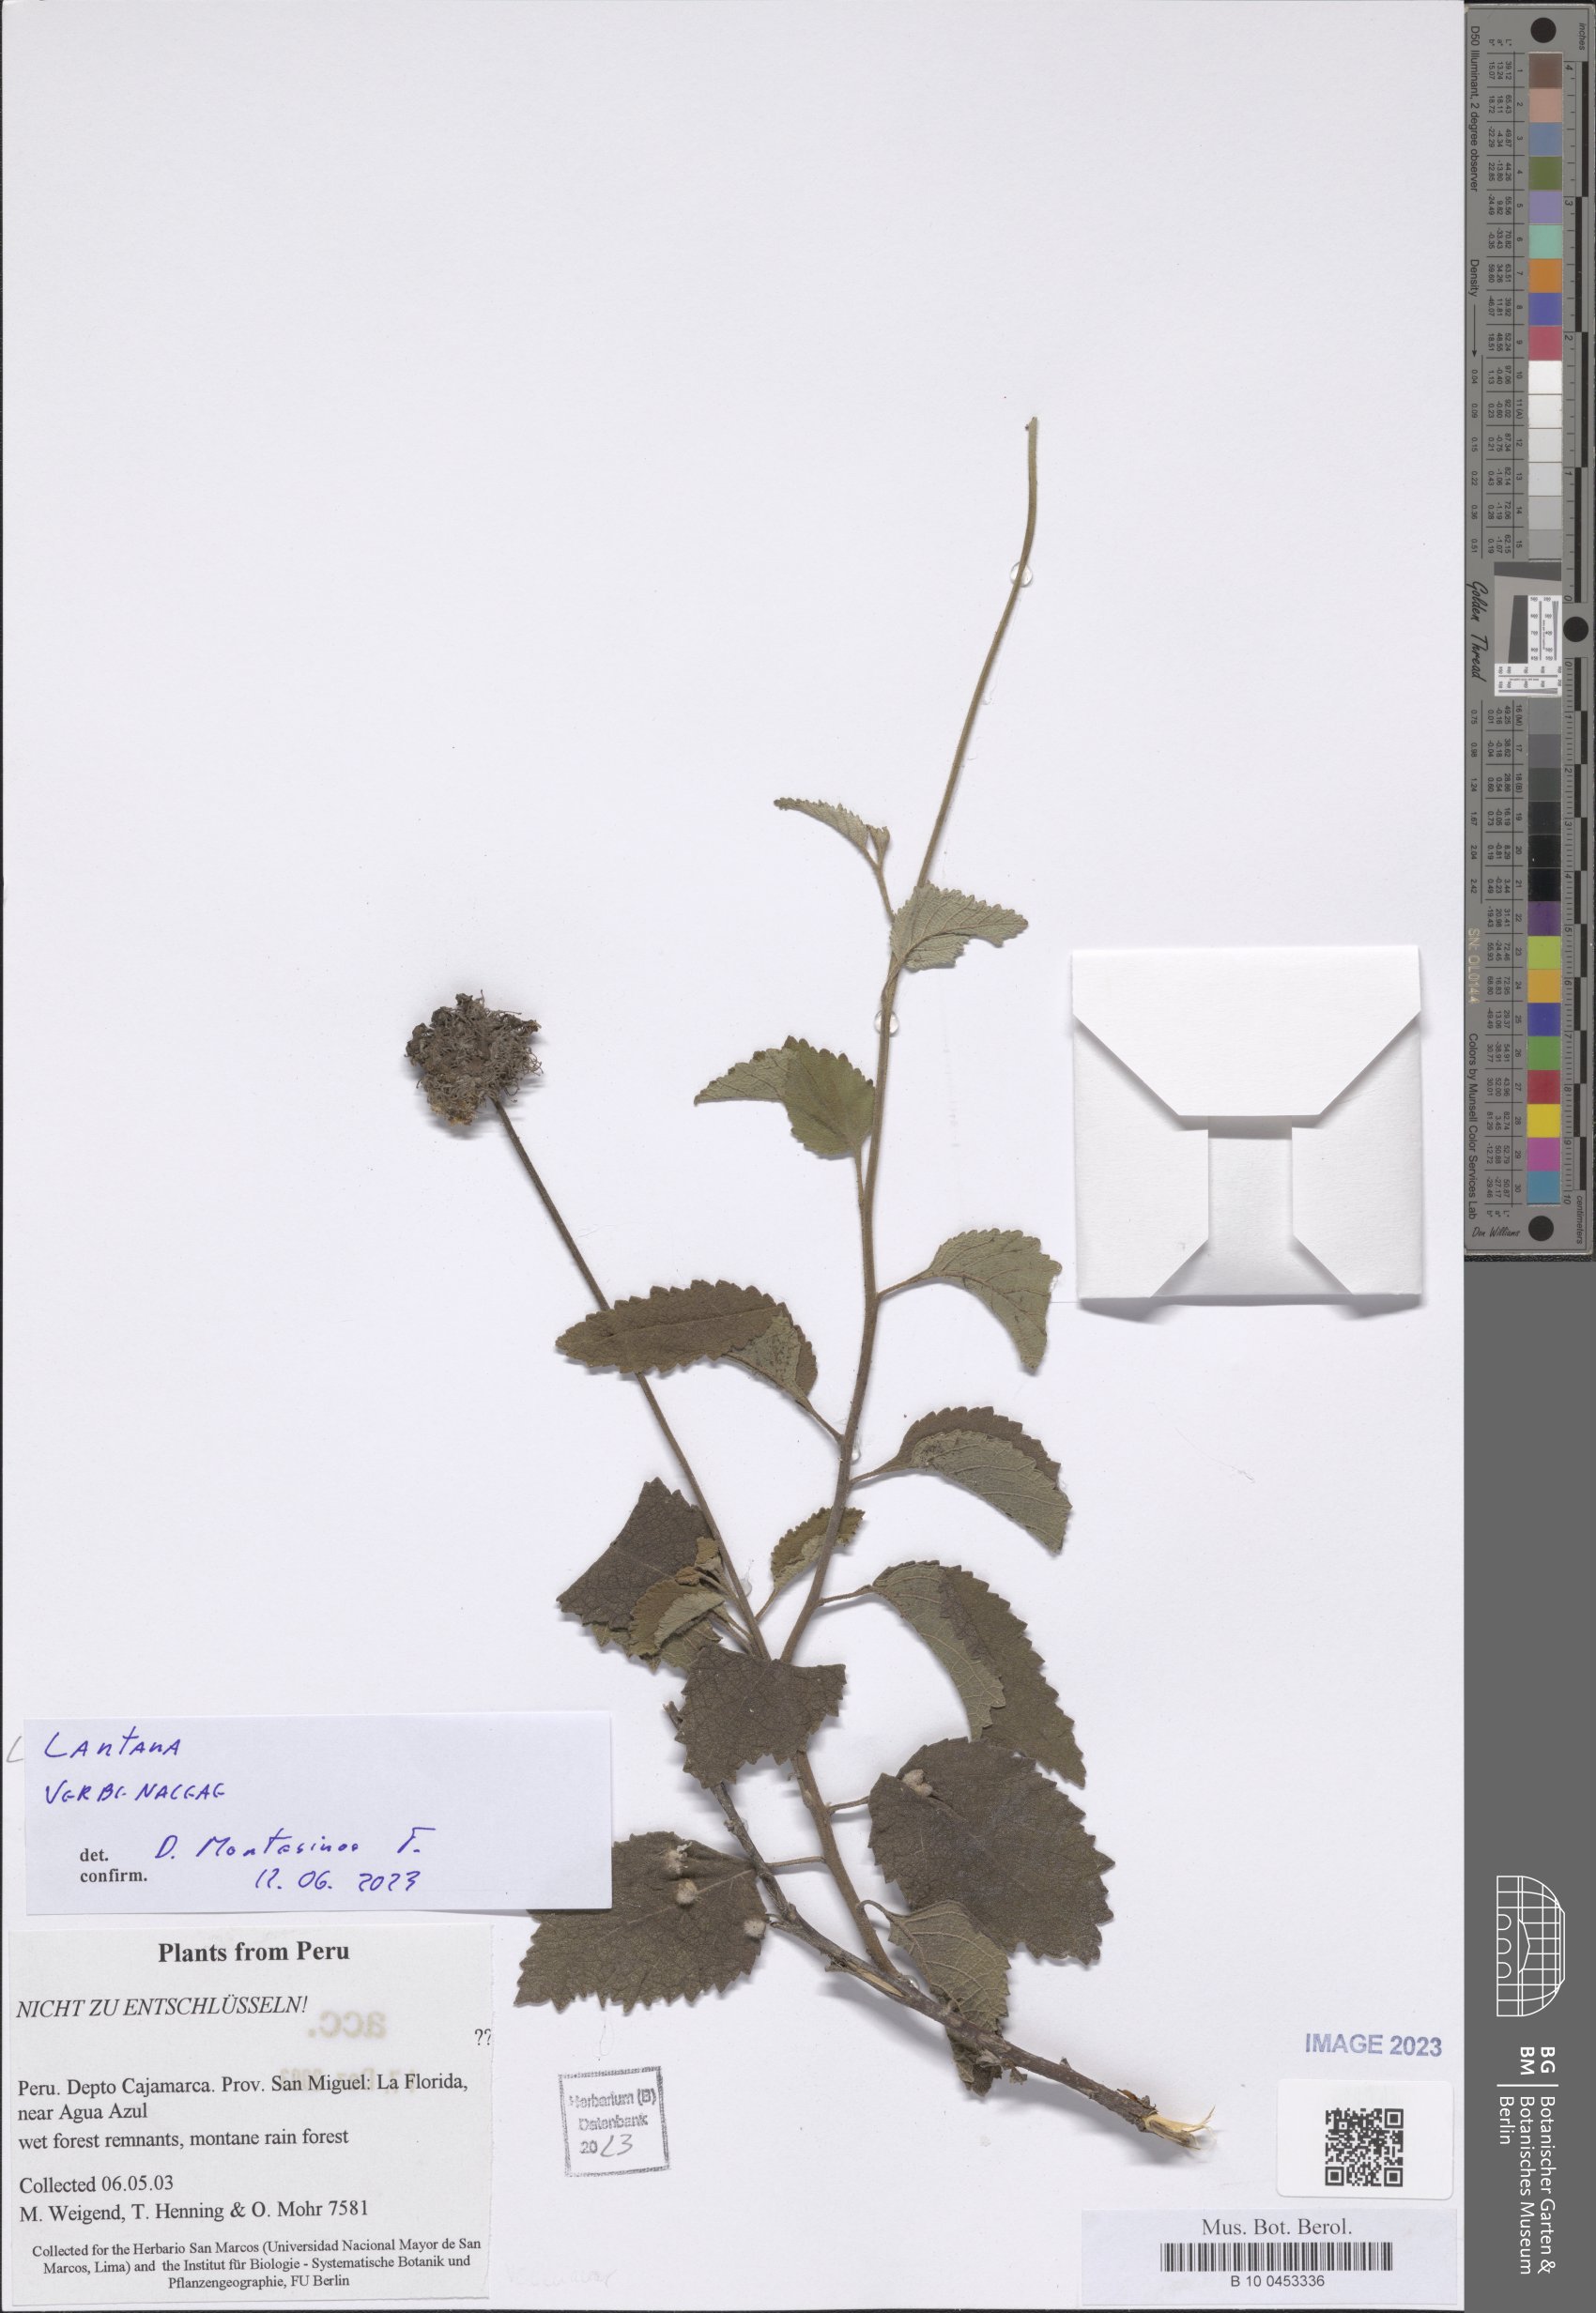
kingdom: Plantae
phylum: Tracheophyta
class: Magnoliopsida
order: Lamiales
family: Verbenaceae
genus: Lantana
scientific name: Lantana
